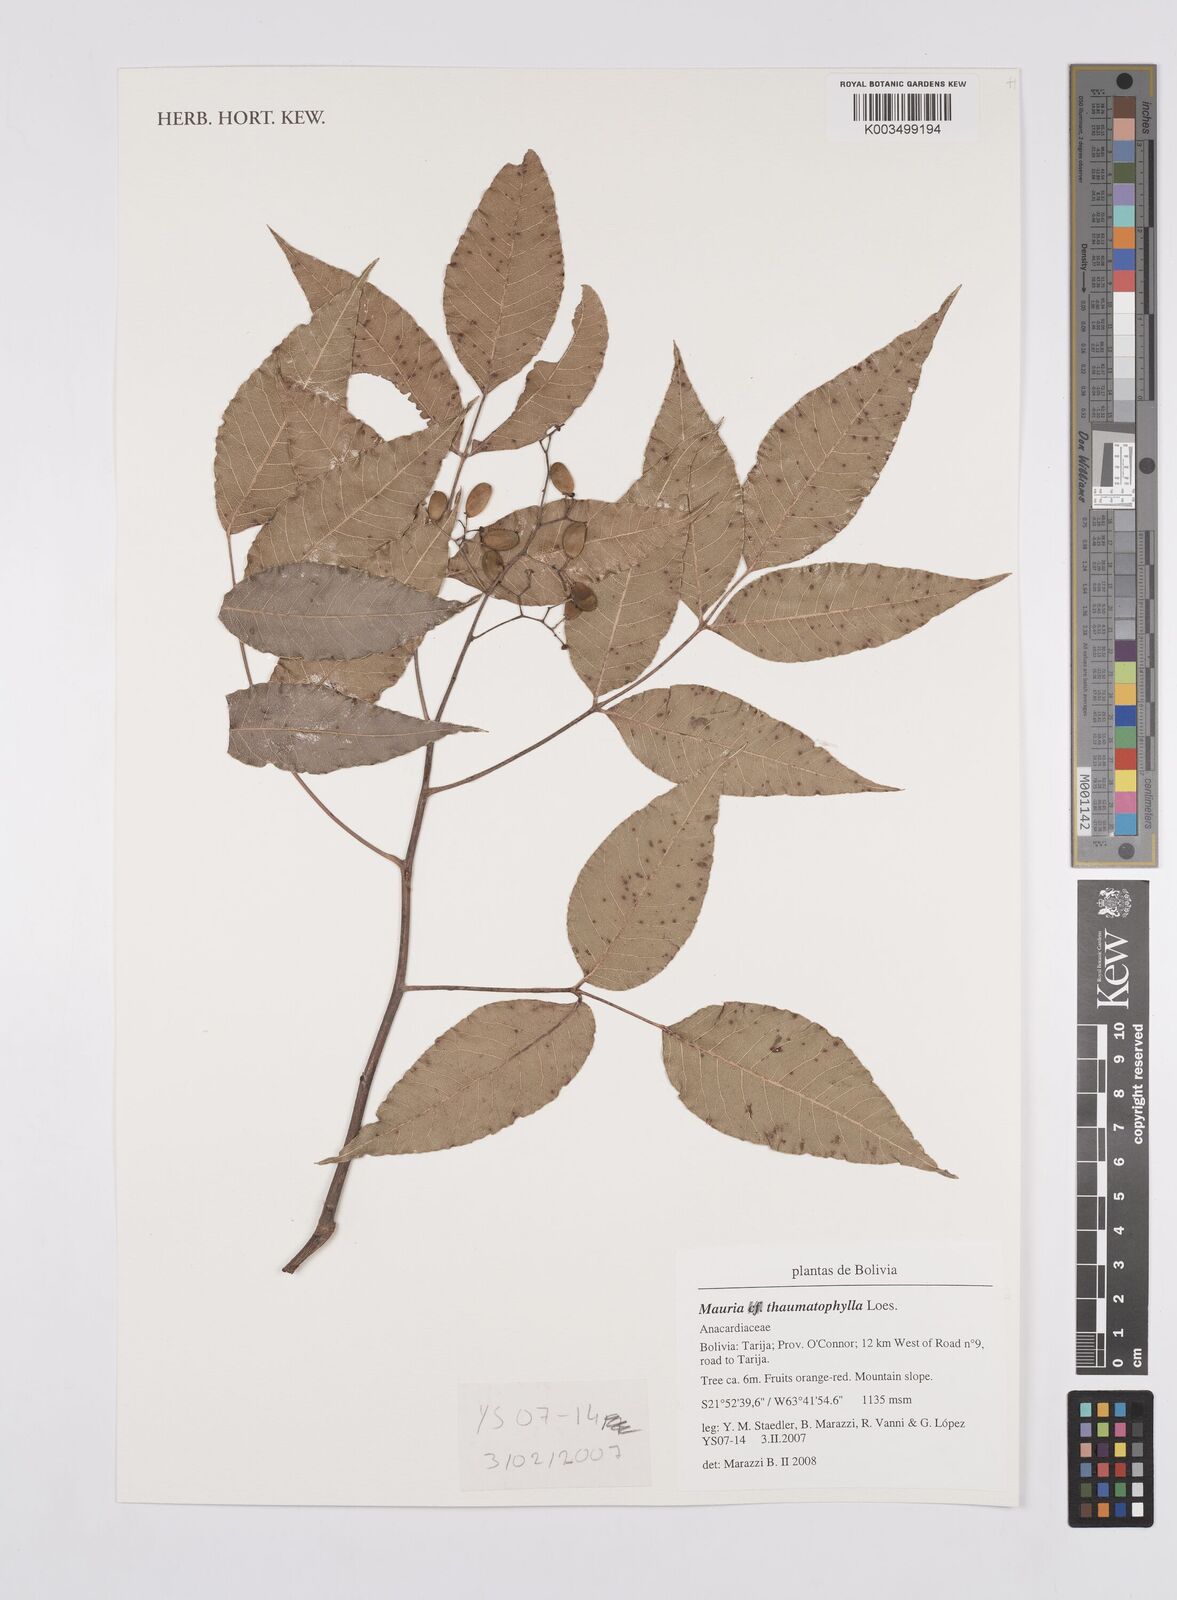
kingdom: Plantae
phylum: Tracheophyta
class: Magnoliopsida
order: Sapindales
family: Anacardiaceae
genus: Mauria
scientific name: Mauria thaumatophylla
